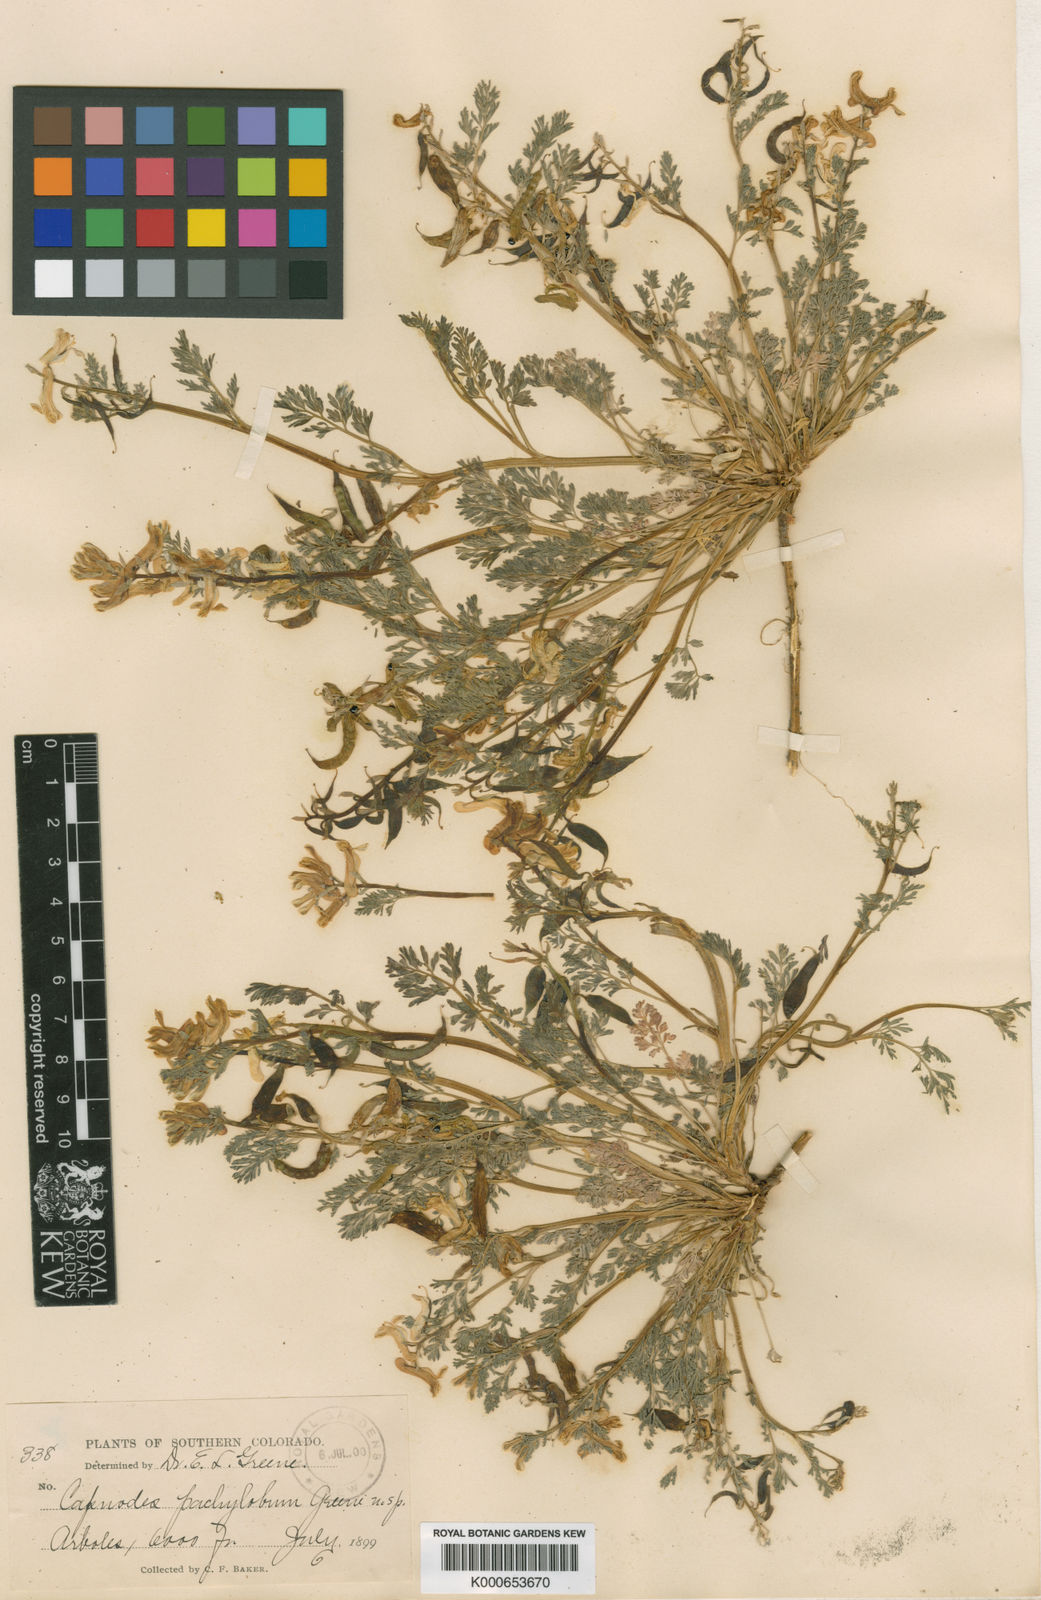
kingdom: Plantae
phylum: Tracheophyta
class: Magnoliopsida
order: Ranunculales
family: Papaveraceae
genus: Corydalis
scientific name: Corydalis curvisiliqua
